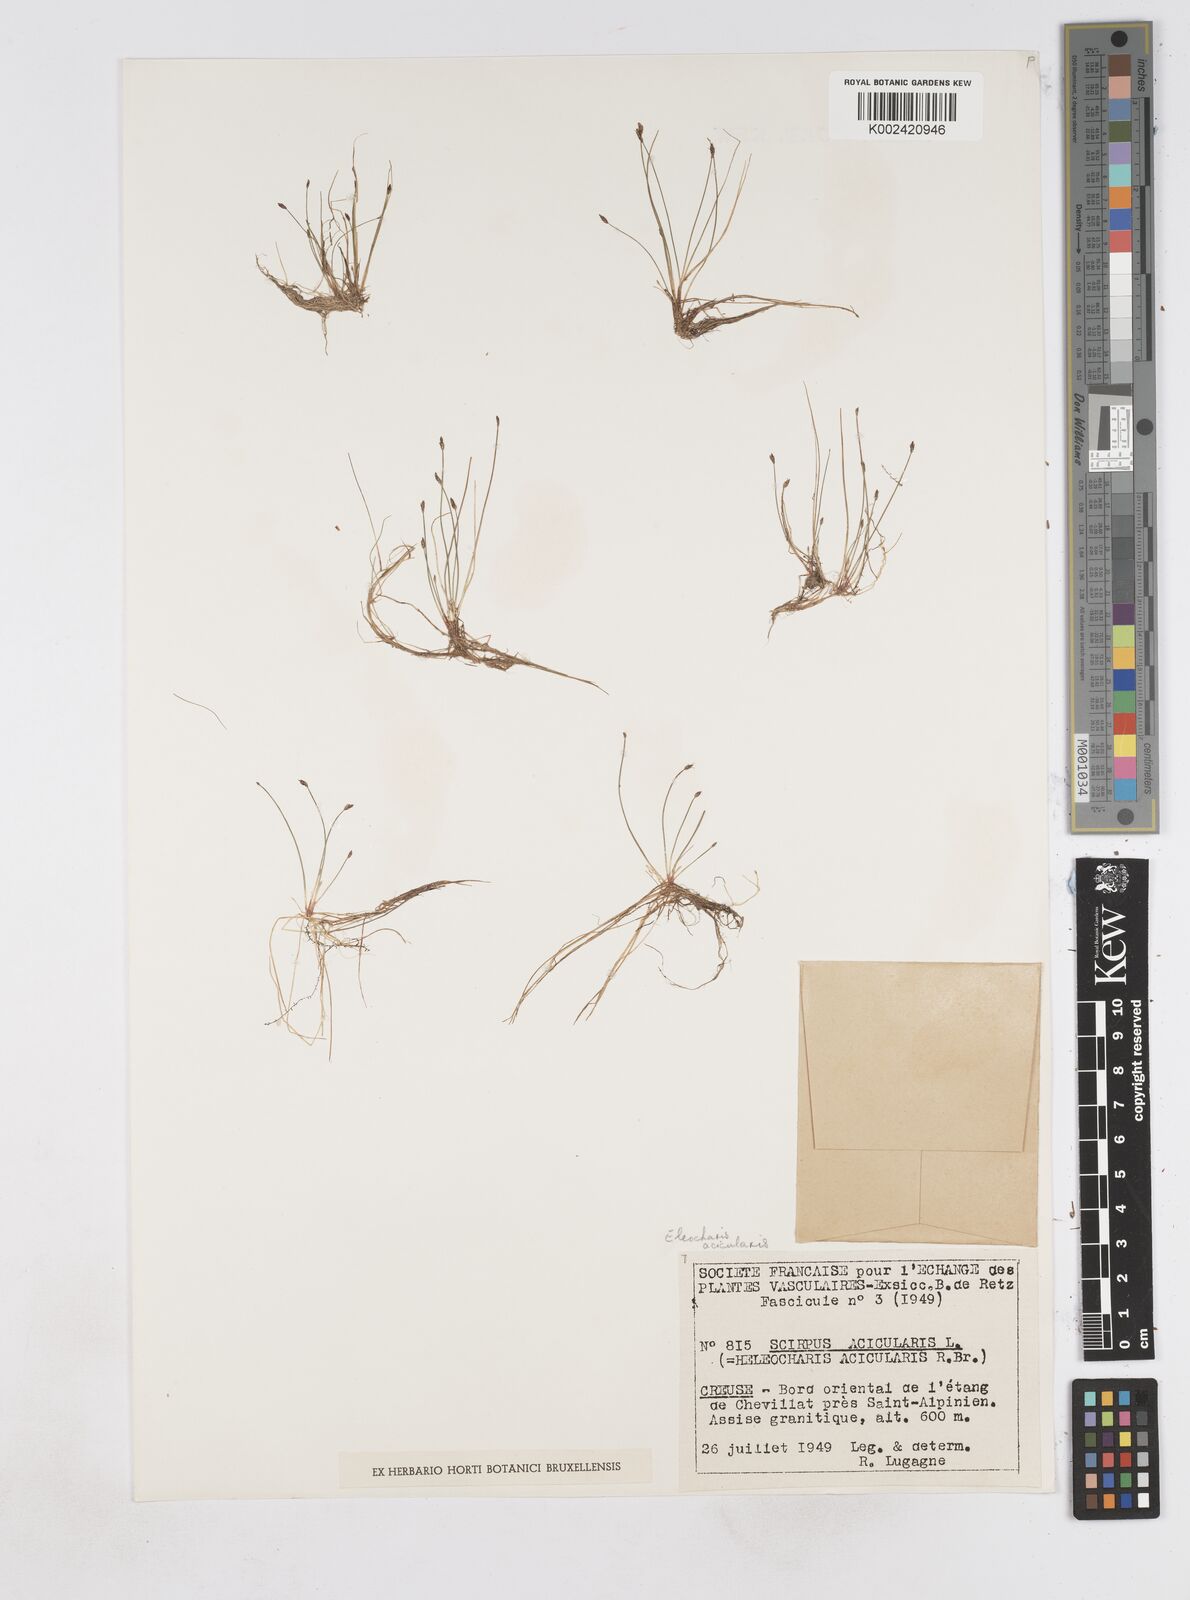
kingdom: Plantae
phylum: Tracheophyta
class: Liliopsida
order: Poales
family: Cyperaceae
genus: Eleocharis
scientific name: Eleocharis acicularis
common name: Needle spike-rush
